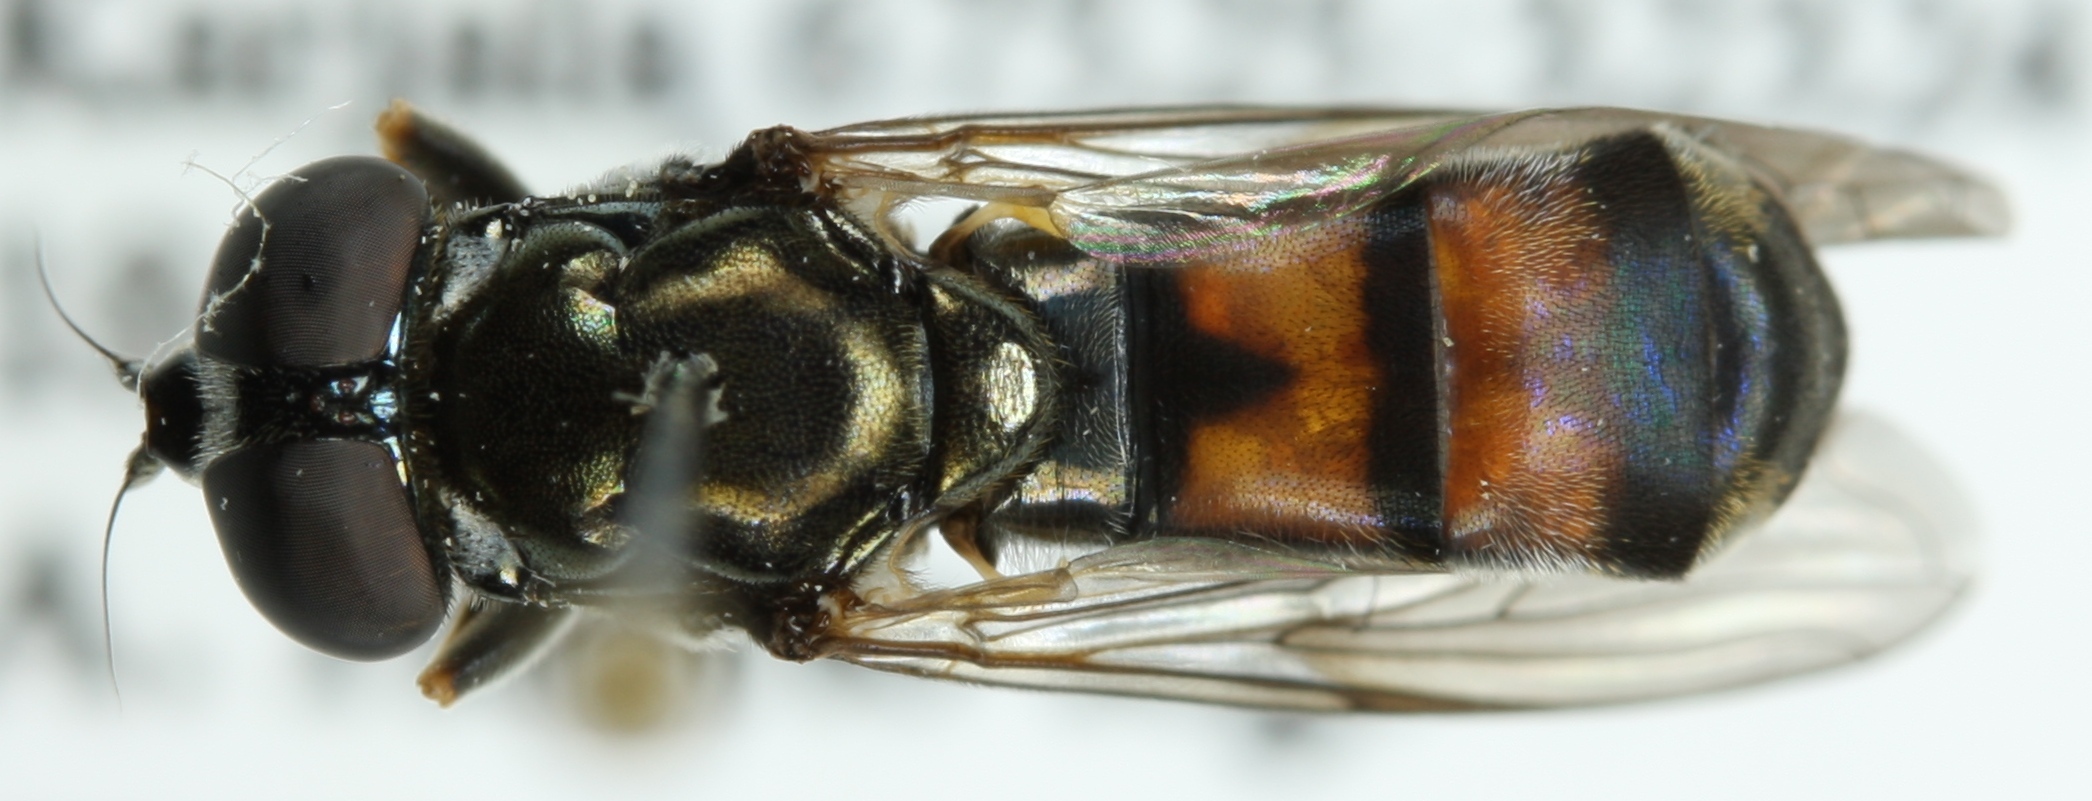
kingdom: Animalia
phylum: Arthropoda
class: Insecta
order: Diptera
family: Syrphidae
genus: Xylota
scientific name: Xylota tarda
